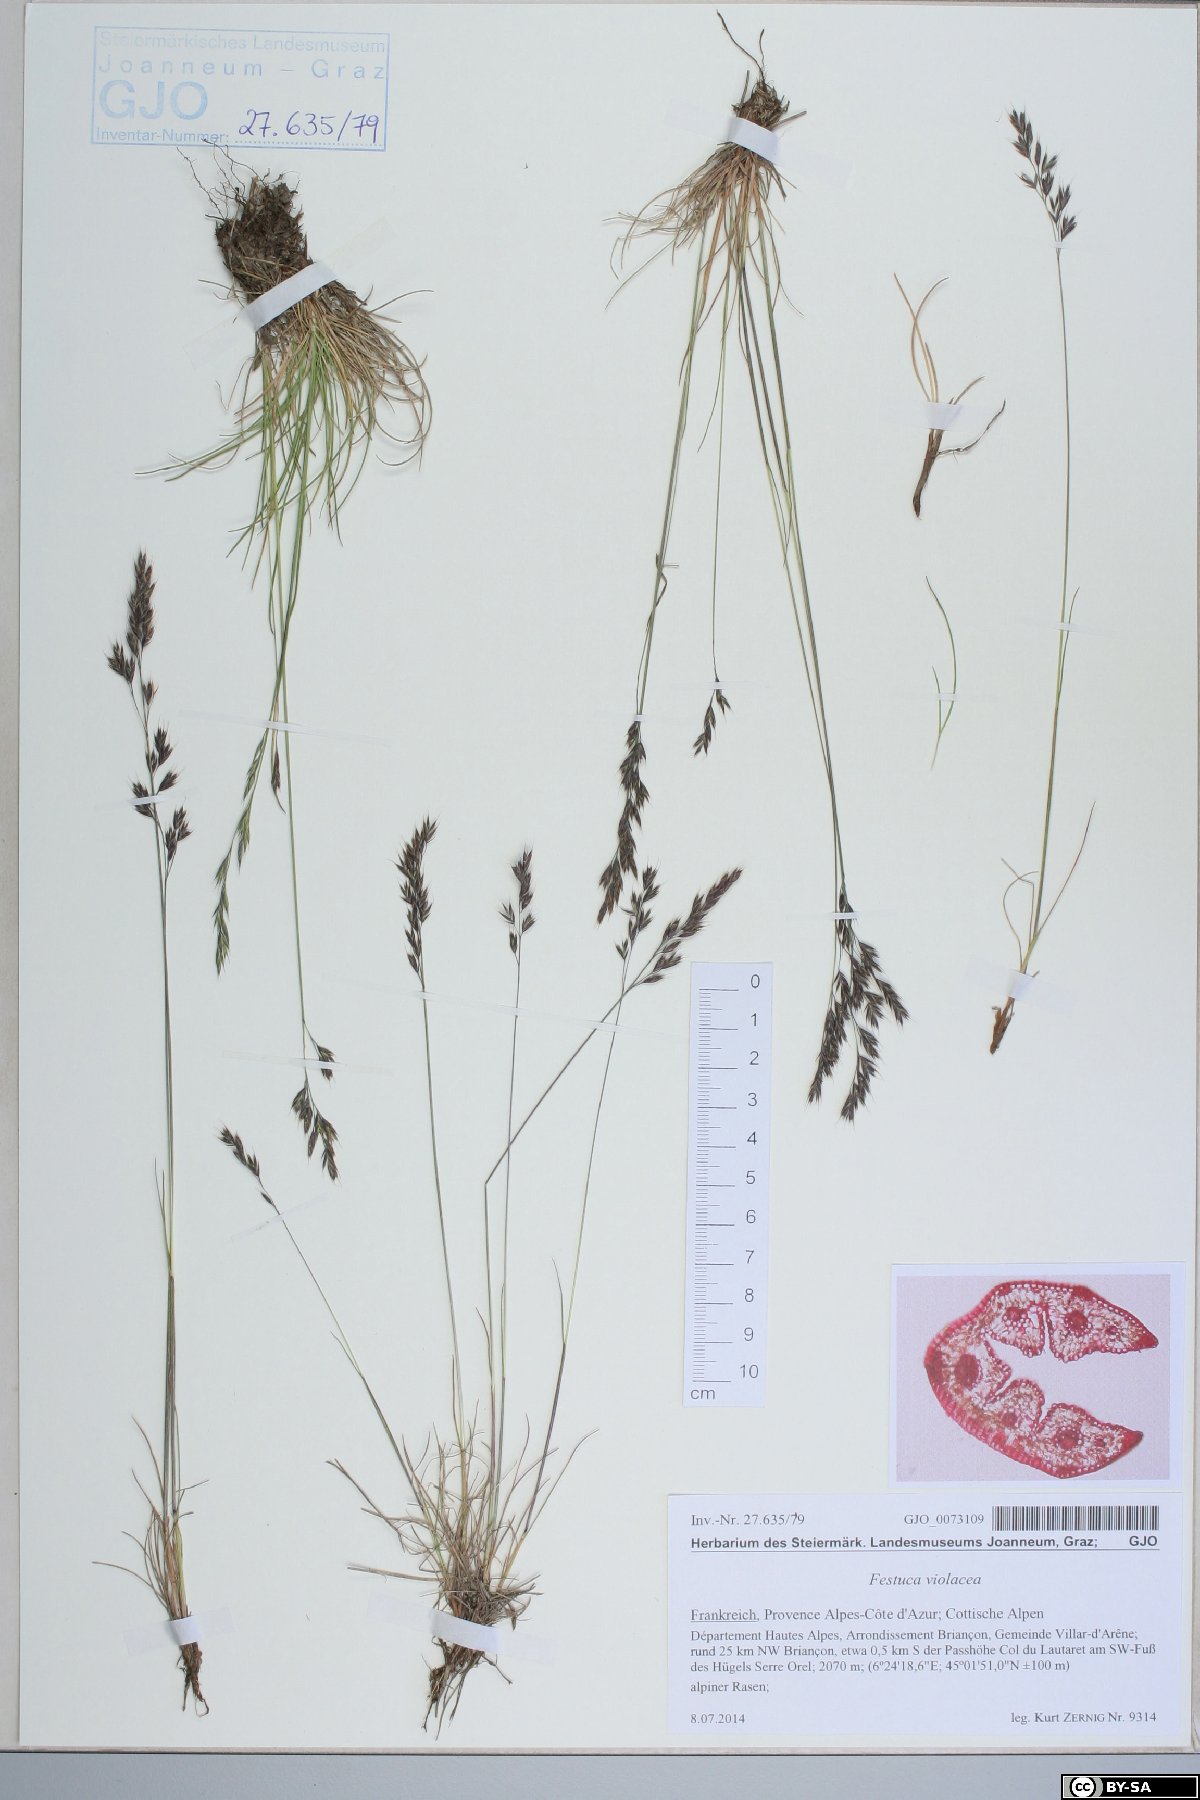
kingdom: Plantae
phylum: Tracheophyta
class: Liliopsida
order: Poales
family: Poaceae
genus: Festuca
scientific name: Festuca violacea
